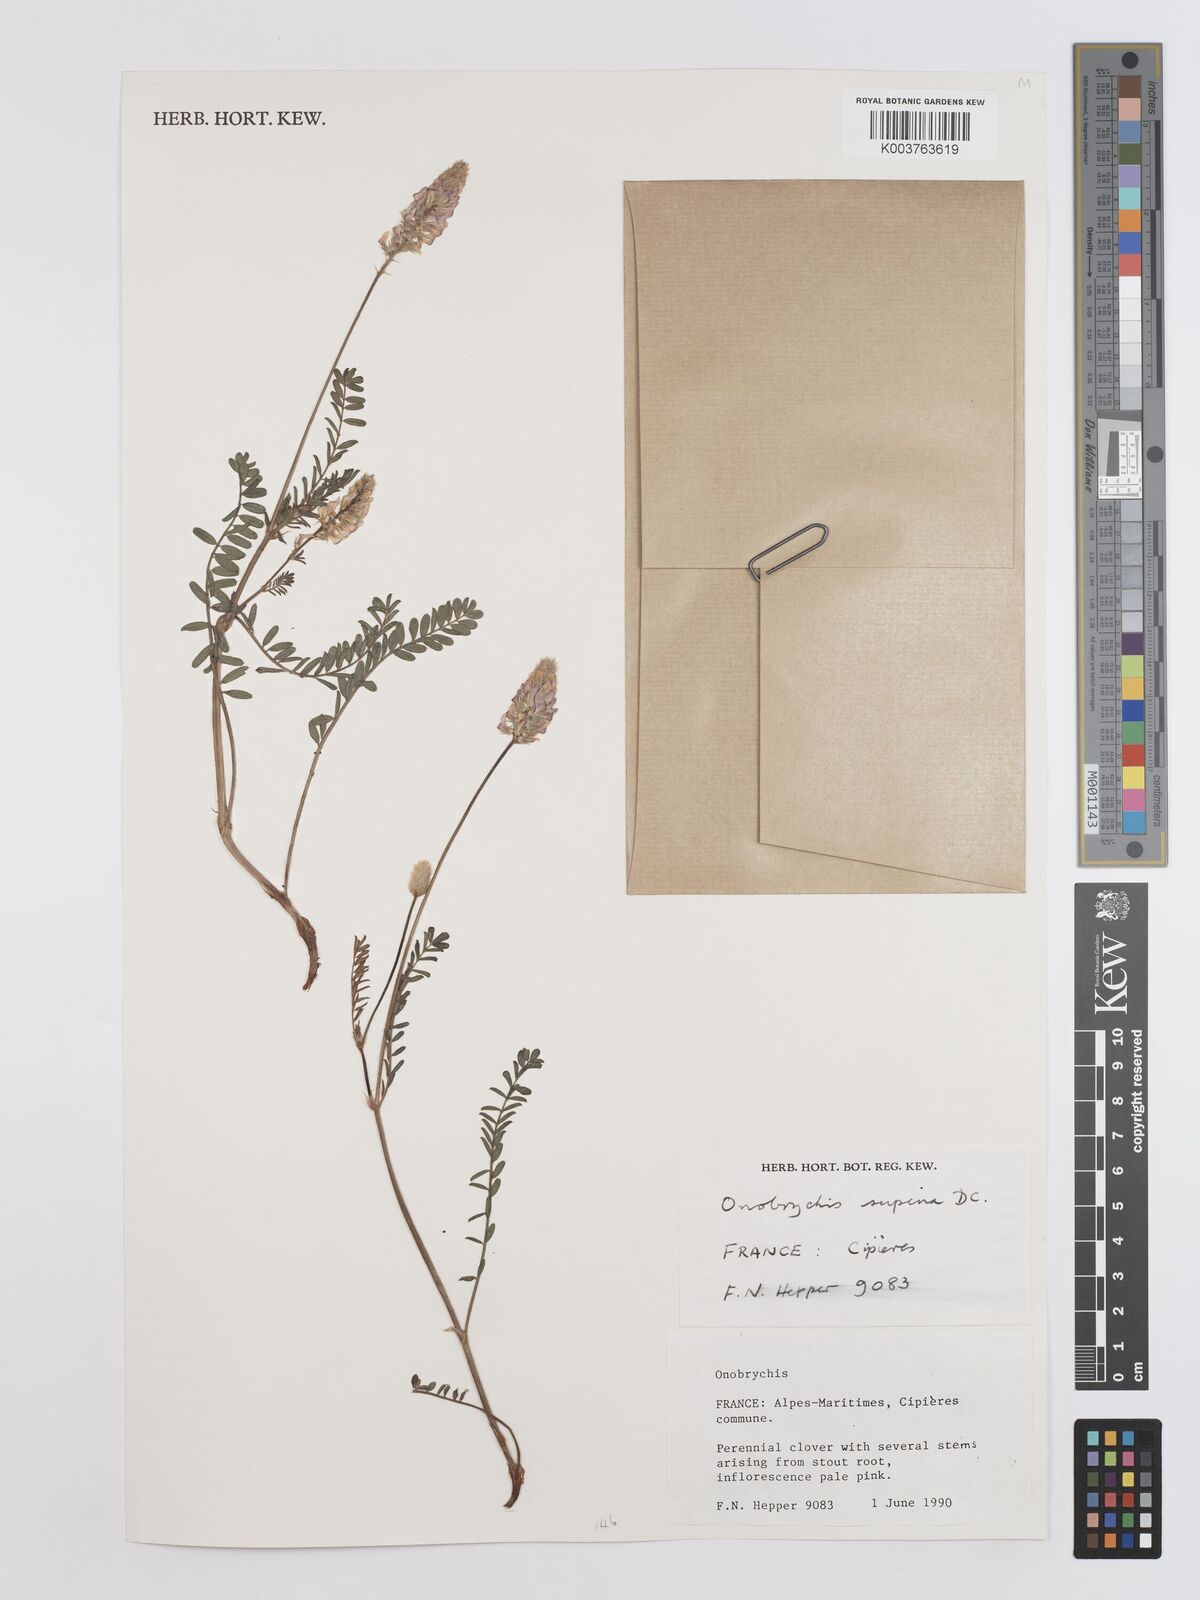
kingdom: Plantae
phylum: Tracheophyta
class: Magnoliopsida
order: Fabales
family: Fabaceae
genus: Onobrychis
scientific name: Onobrychis supina
